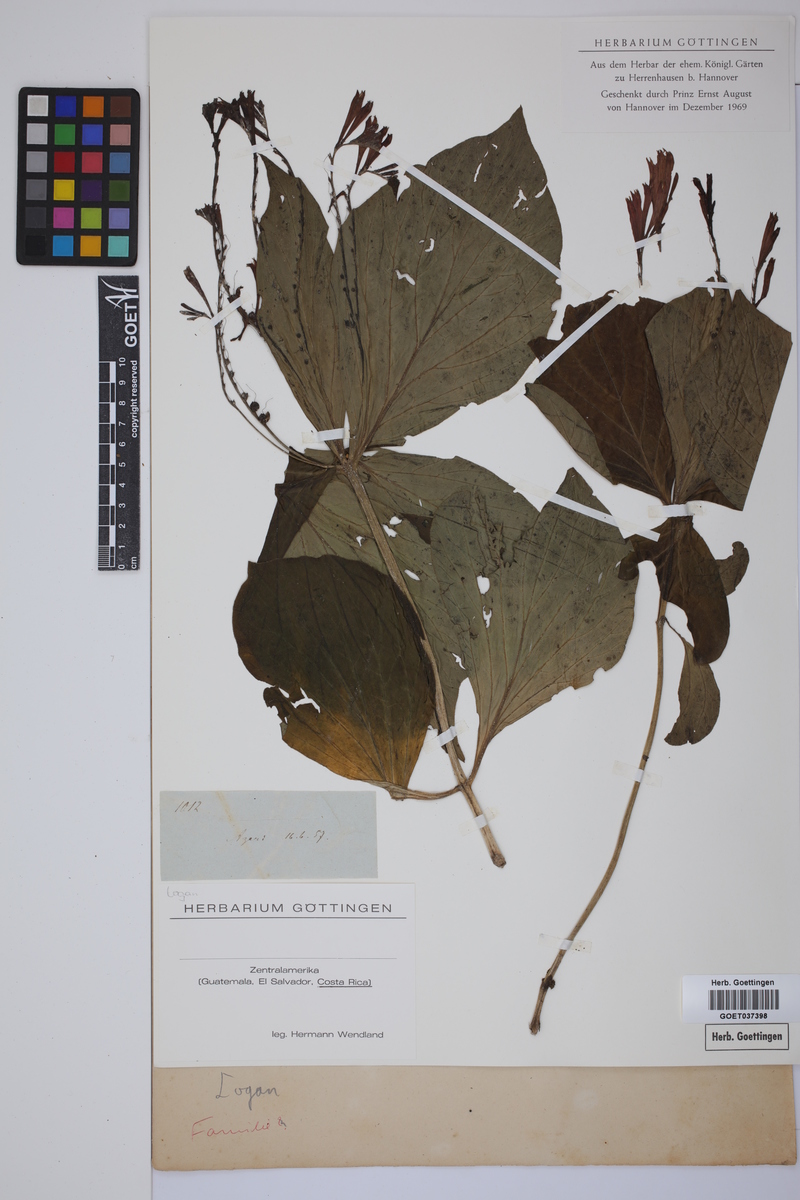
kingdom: Plantae
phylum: Tracheophyta
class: Magnoliopsida
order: Gentianales
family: Loganiaceae
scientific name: Loganiaceae
